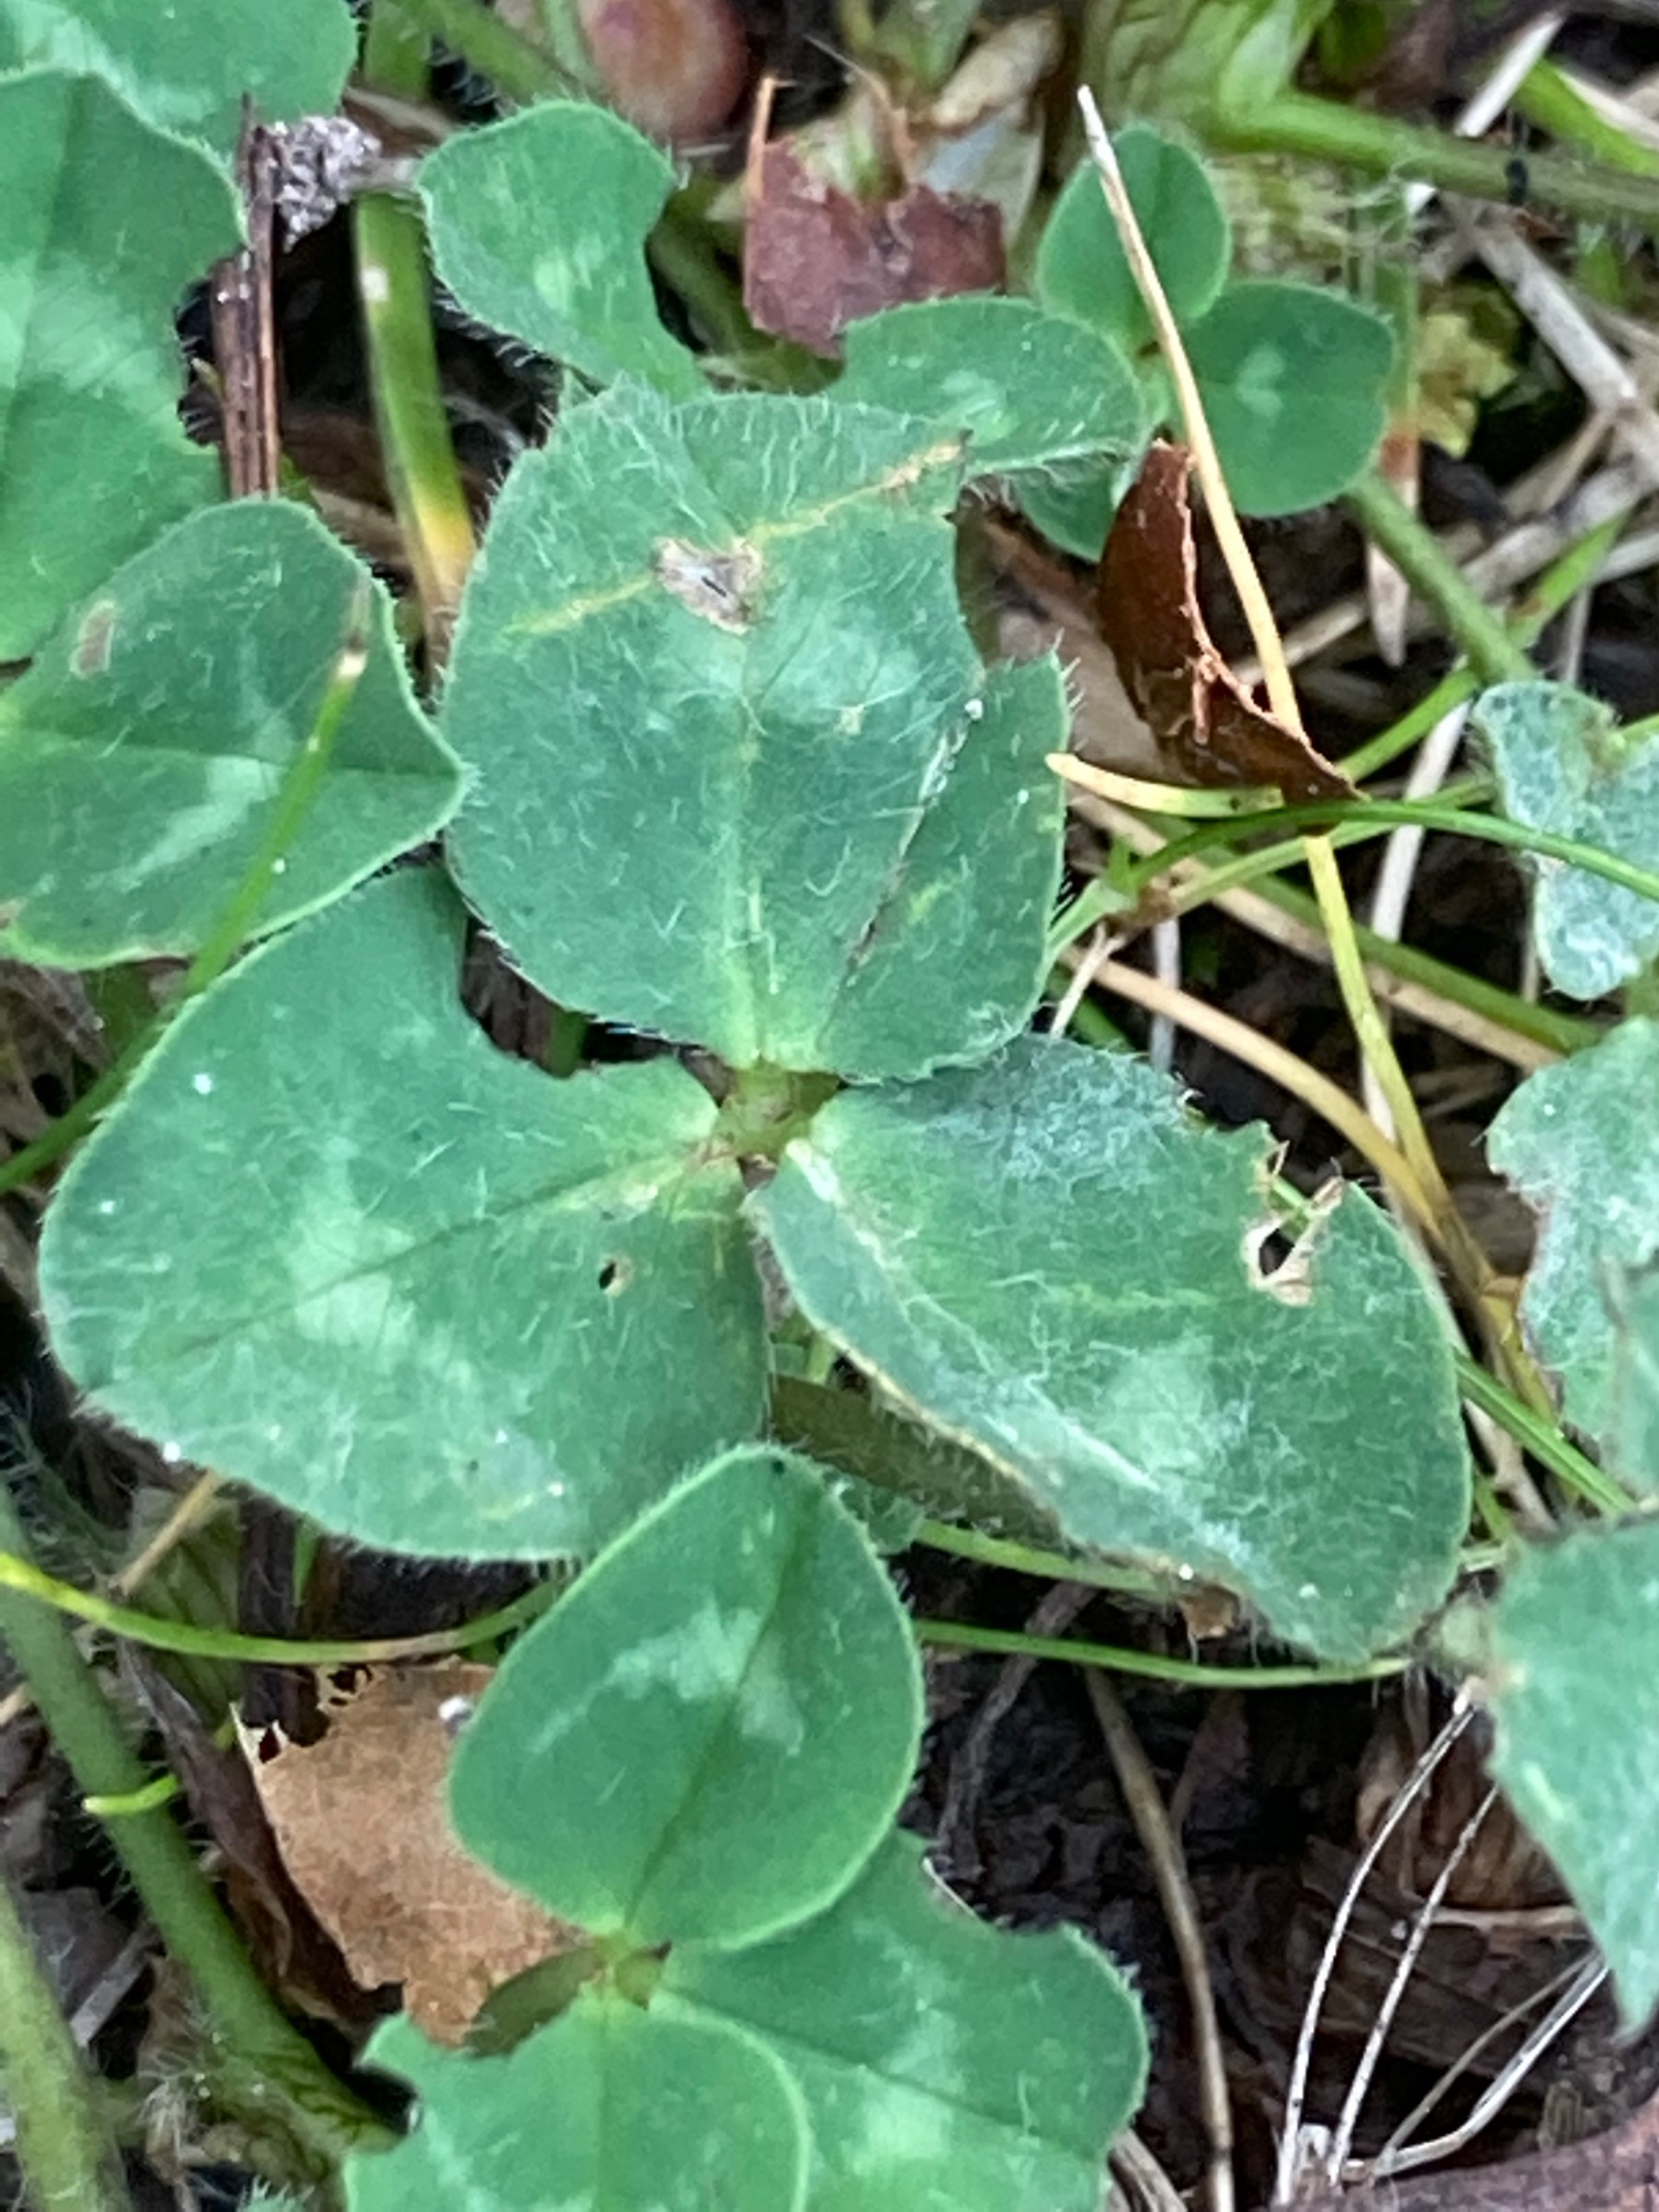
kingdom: Plantae
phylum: Tracheophyta
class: Magnoliopsida
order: Fabales
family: Fabaceae
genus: Trifolium
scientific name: Trifolium pratense
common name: Rød-kløver
